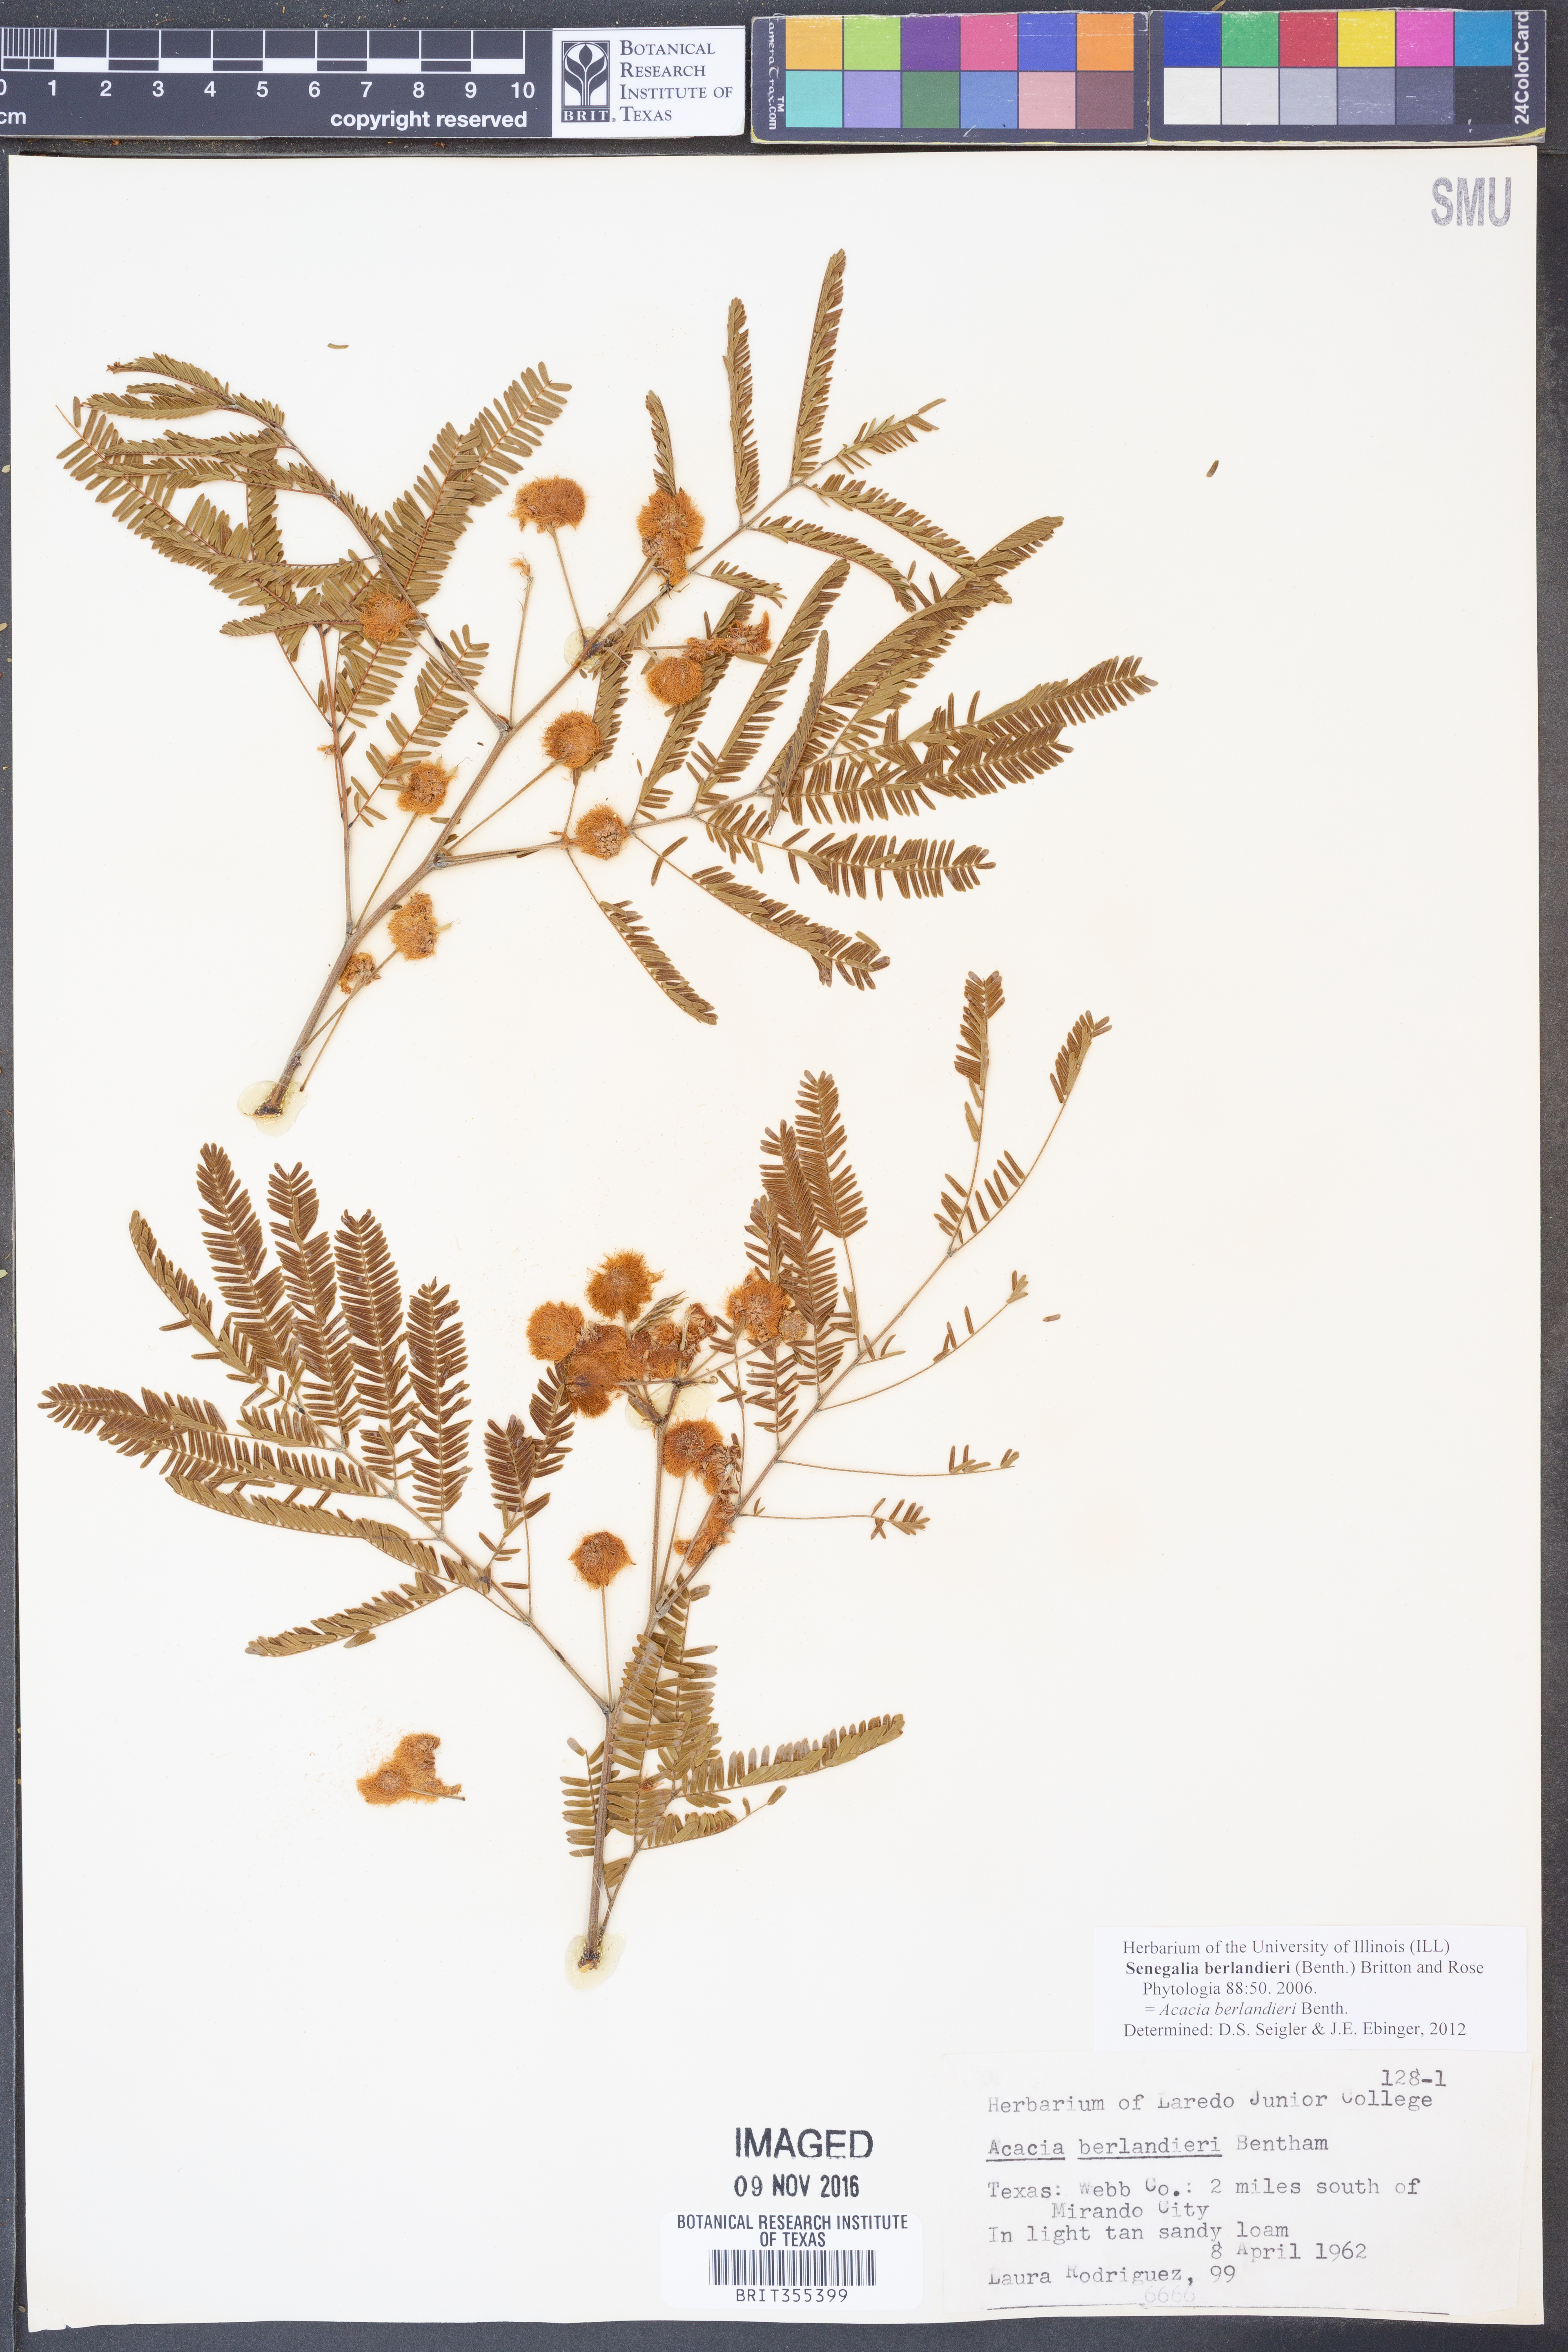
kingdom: Plantae
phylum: Tracheophyta
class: Magnoliopsida
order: Fabales
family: Fabaceae
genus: Senegalia
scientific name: Senegalia berlandieri
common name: Berlandier acacia
